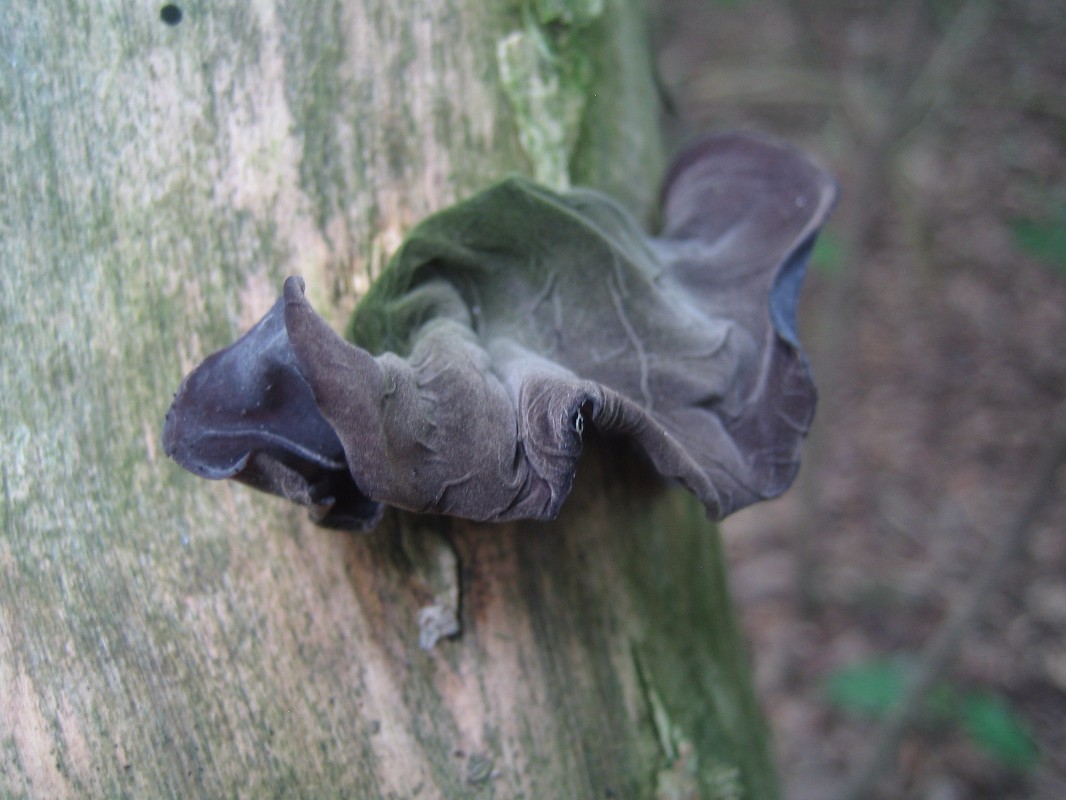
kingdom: Fungi
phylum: Basidiomycota
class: Agaricomycetes
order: Auriculariales
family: Auriculariaceae
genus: Auricularia
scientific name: Auricularia auricula-judae
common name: almindelig judasøre
